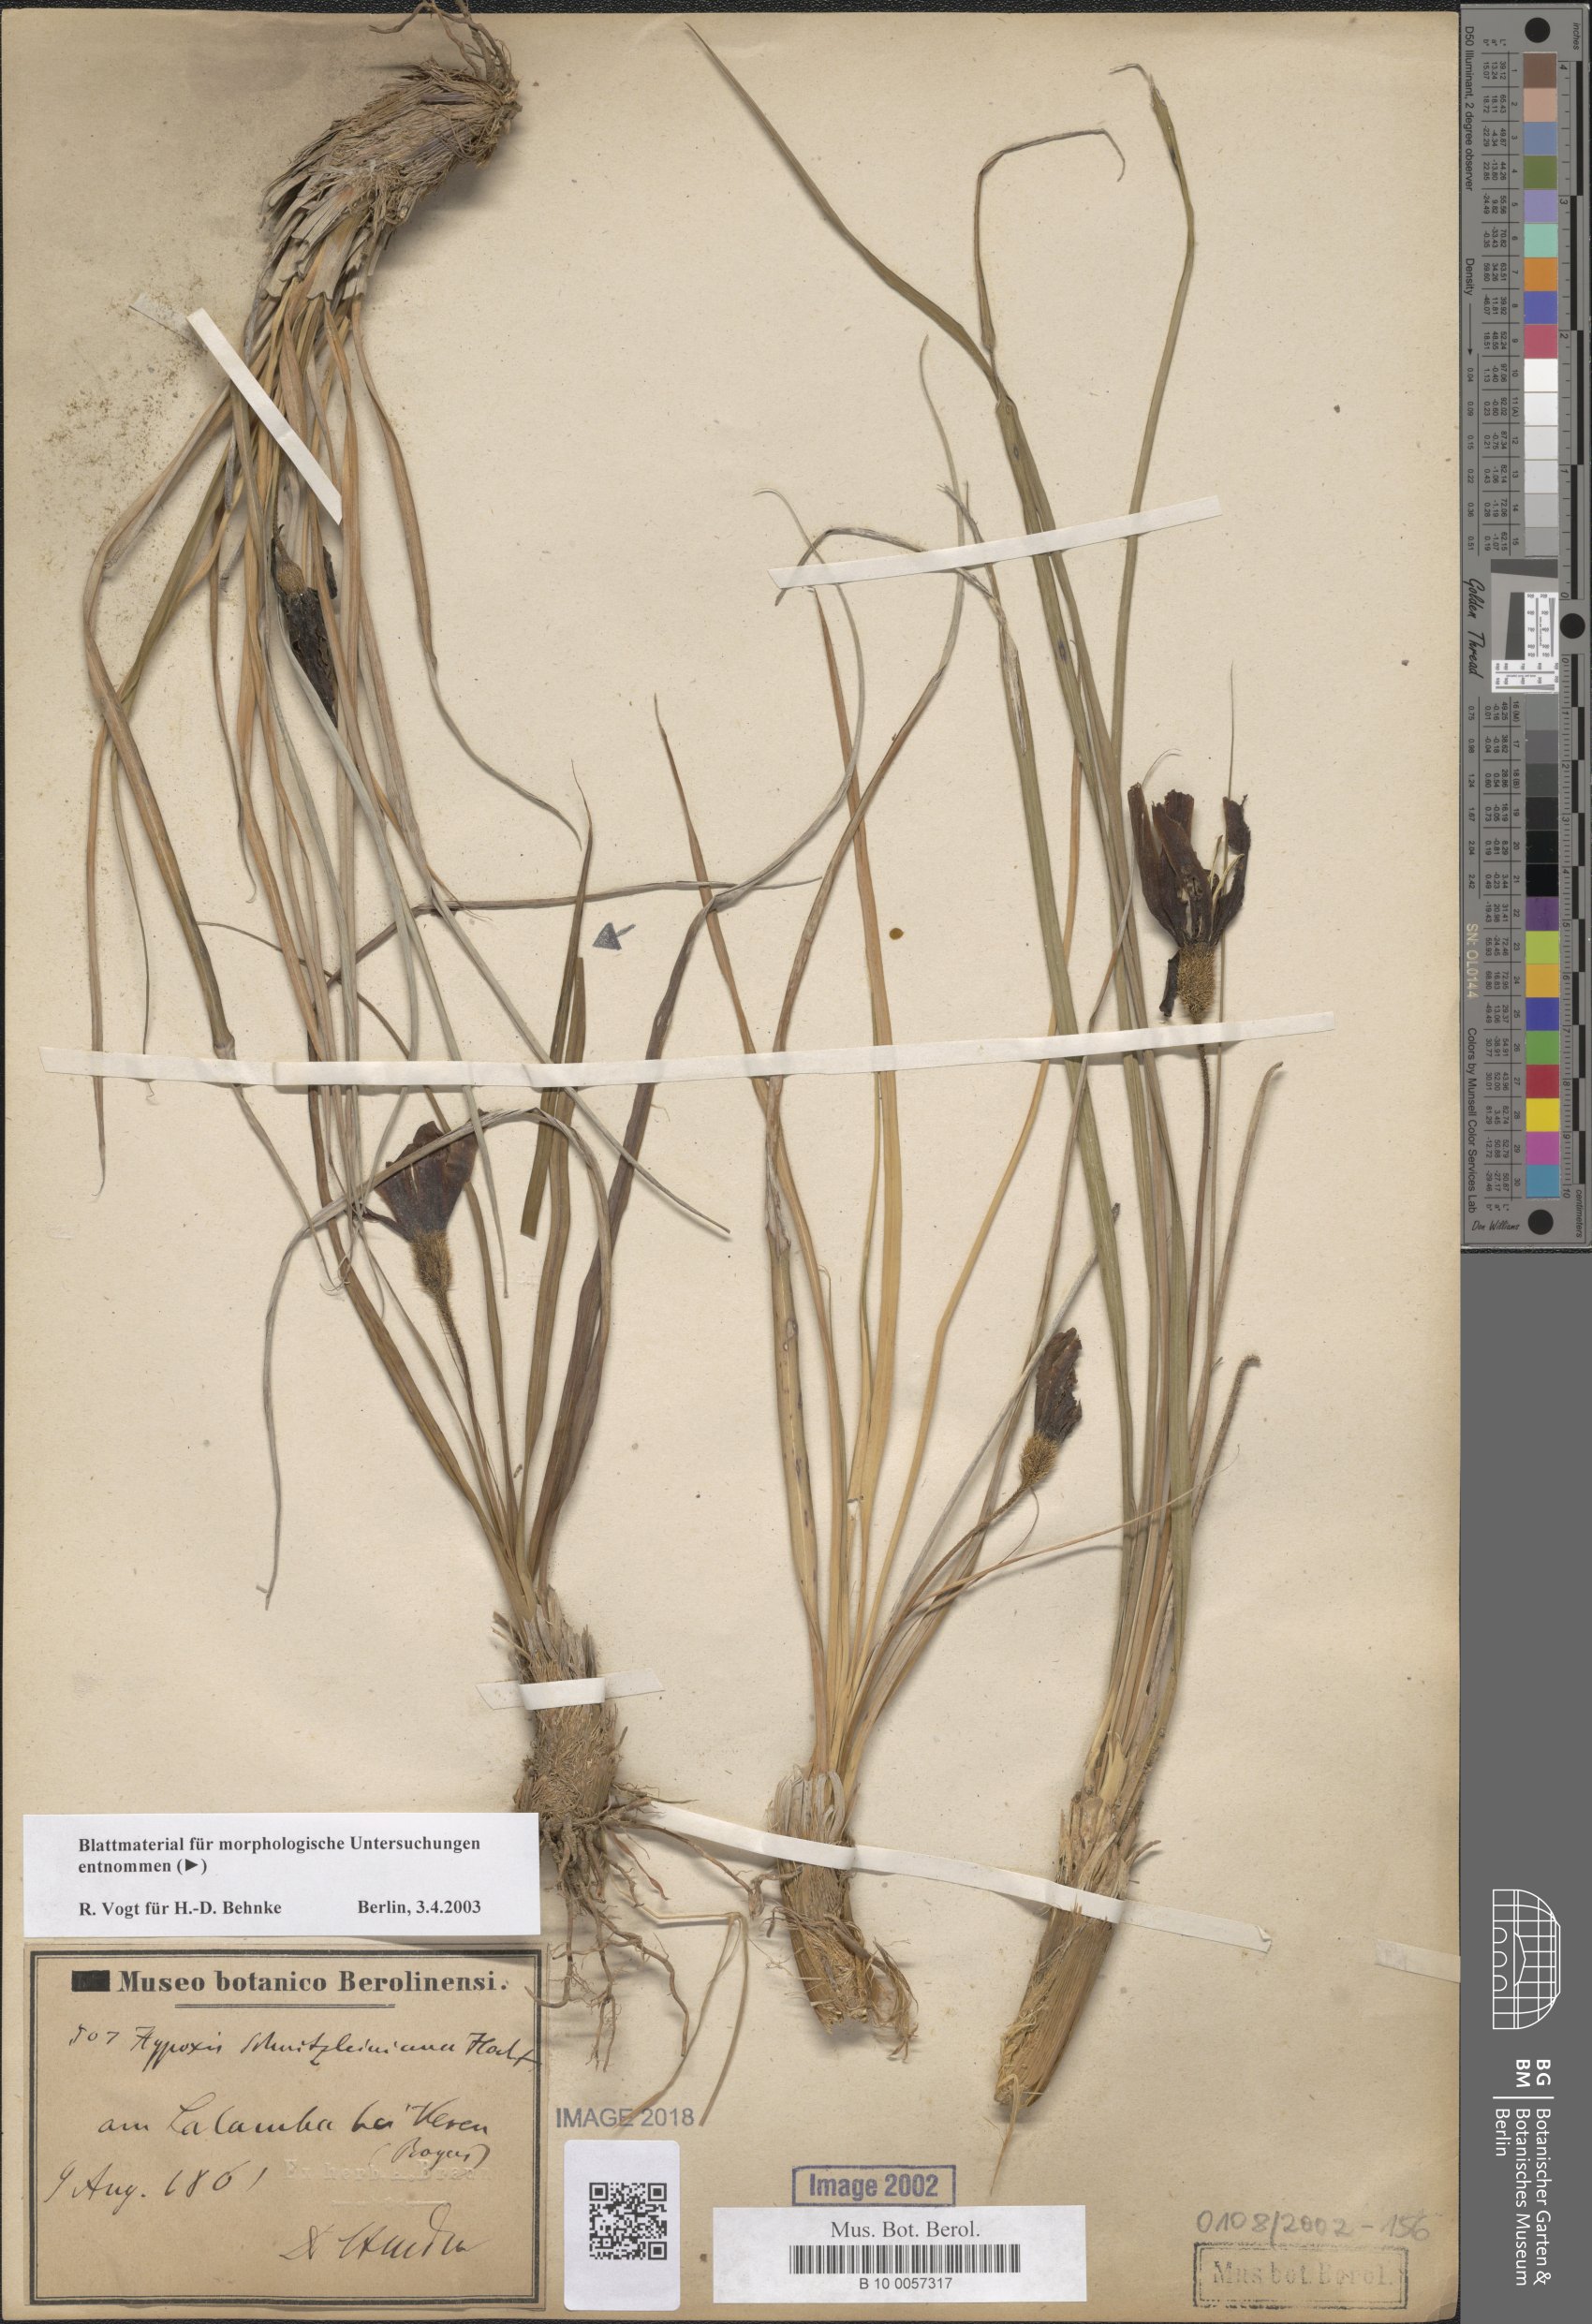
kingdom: Plantae
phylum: Tracheophyta
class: Liliopsida
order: Pandanales
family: Velloziaceae
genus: Xerophyta
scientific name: Xerophyta schnizleinia
